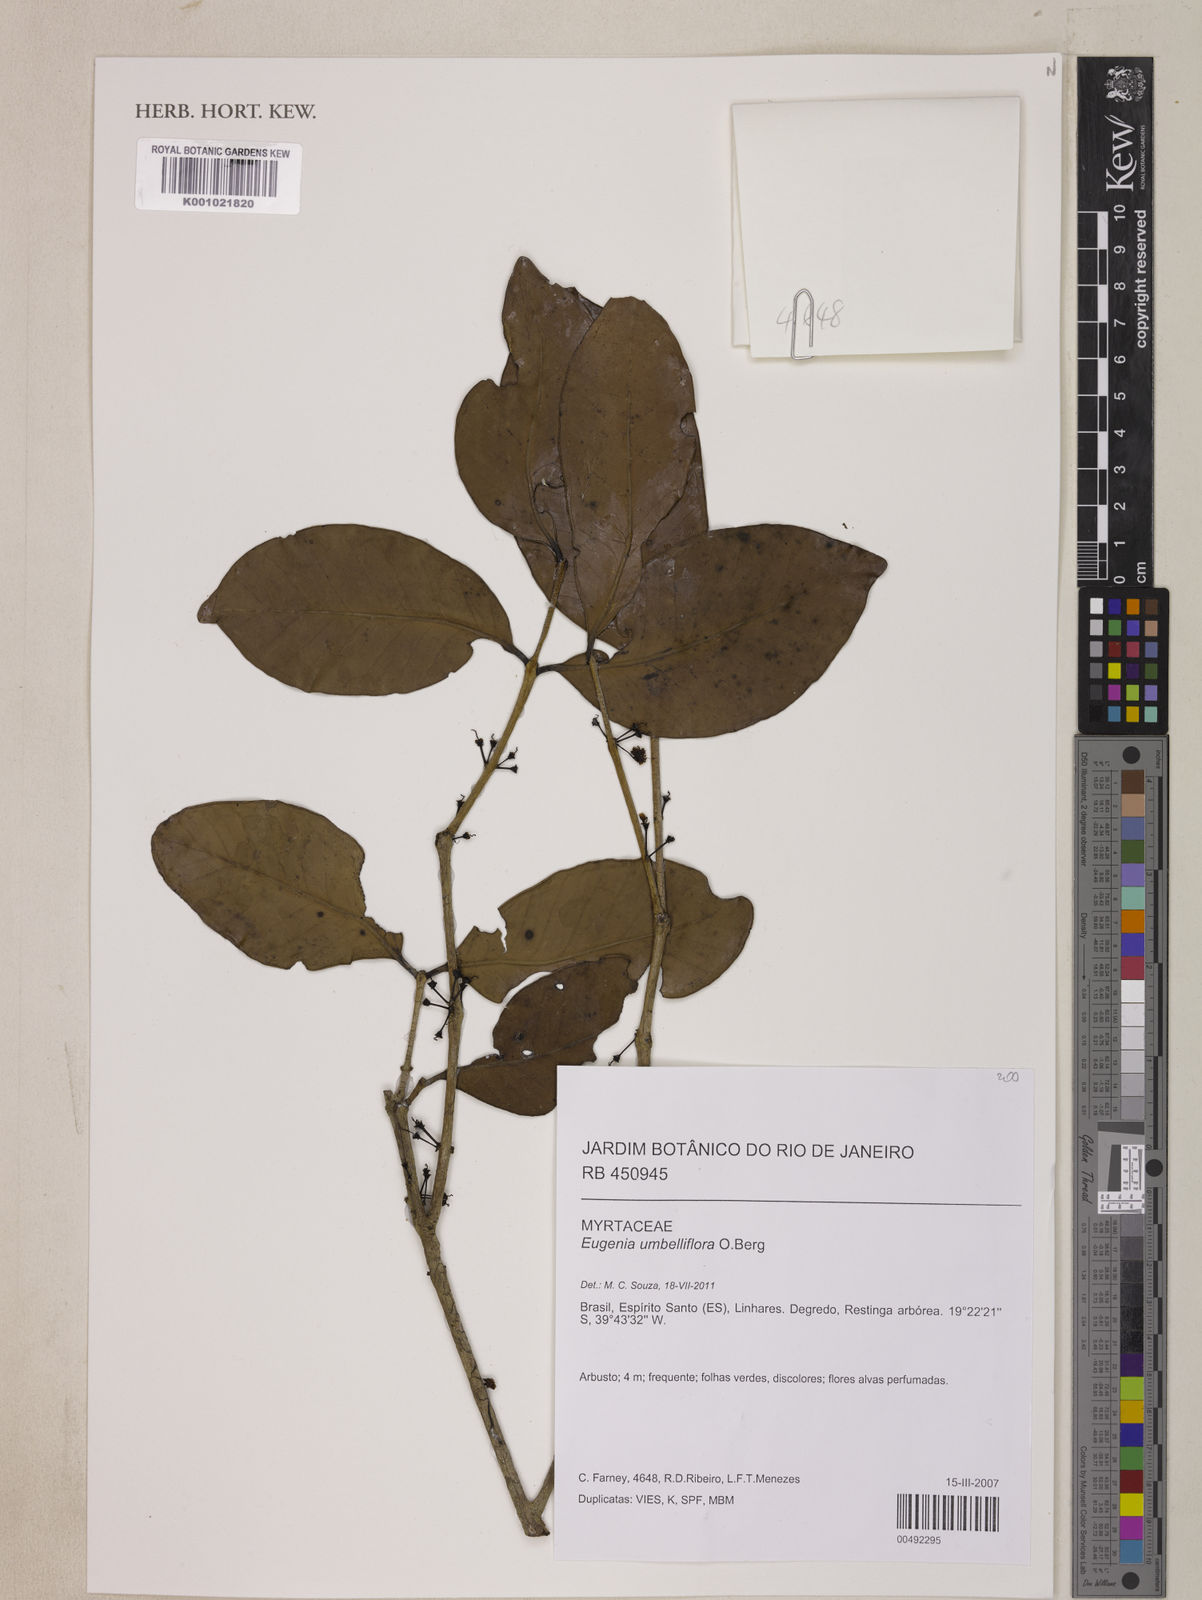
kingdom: Plantae
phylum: Tracheophyta
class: Magnoliopsida
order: Myrtales
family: Myrtaceae
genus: Eugenia
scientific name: Eugenia astringens
